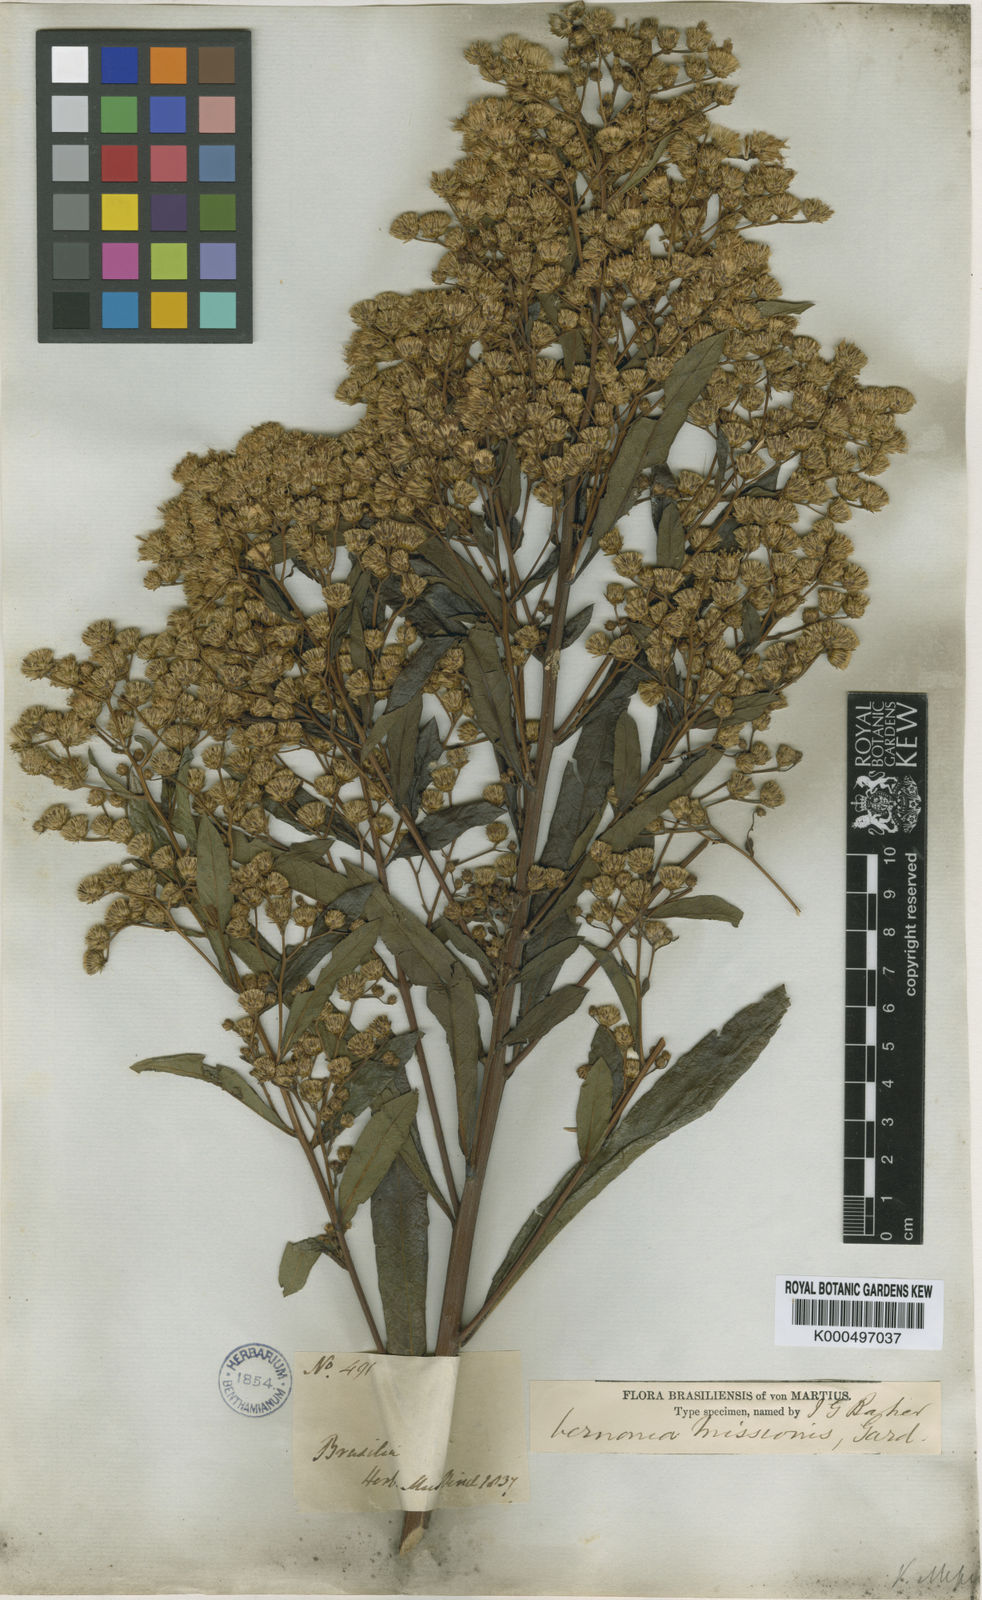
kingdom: Plantae
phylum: Tracheophyta
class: Magnoliopsida
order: Asterales
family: Asteraceae
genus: Vernonanthura
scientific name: Vernonanthura cymosa
